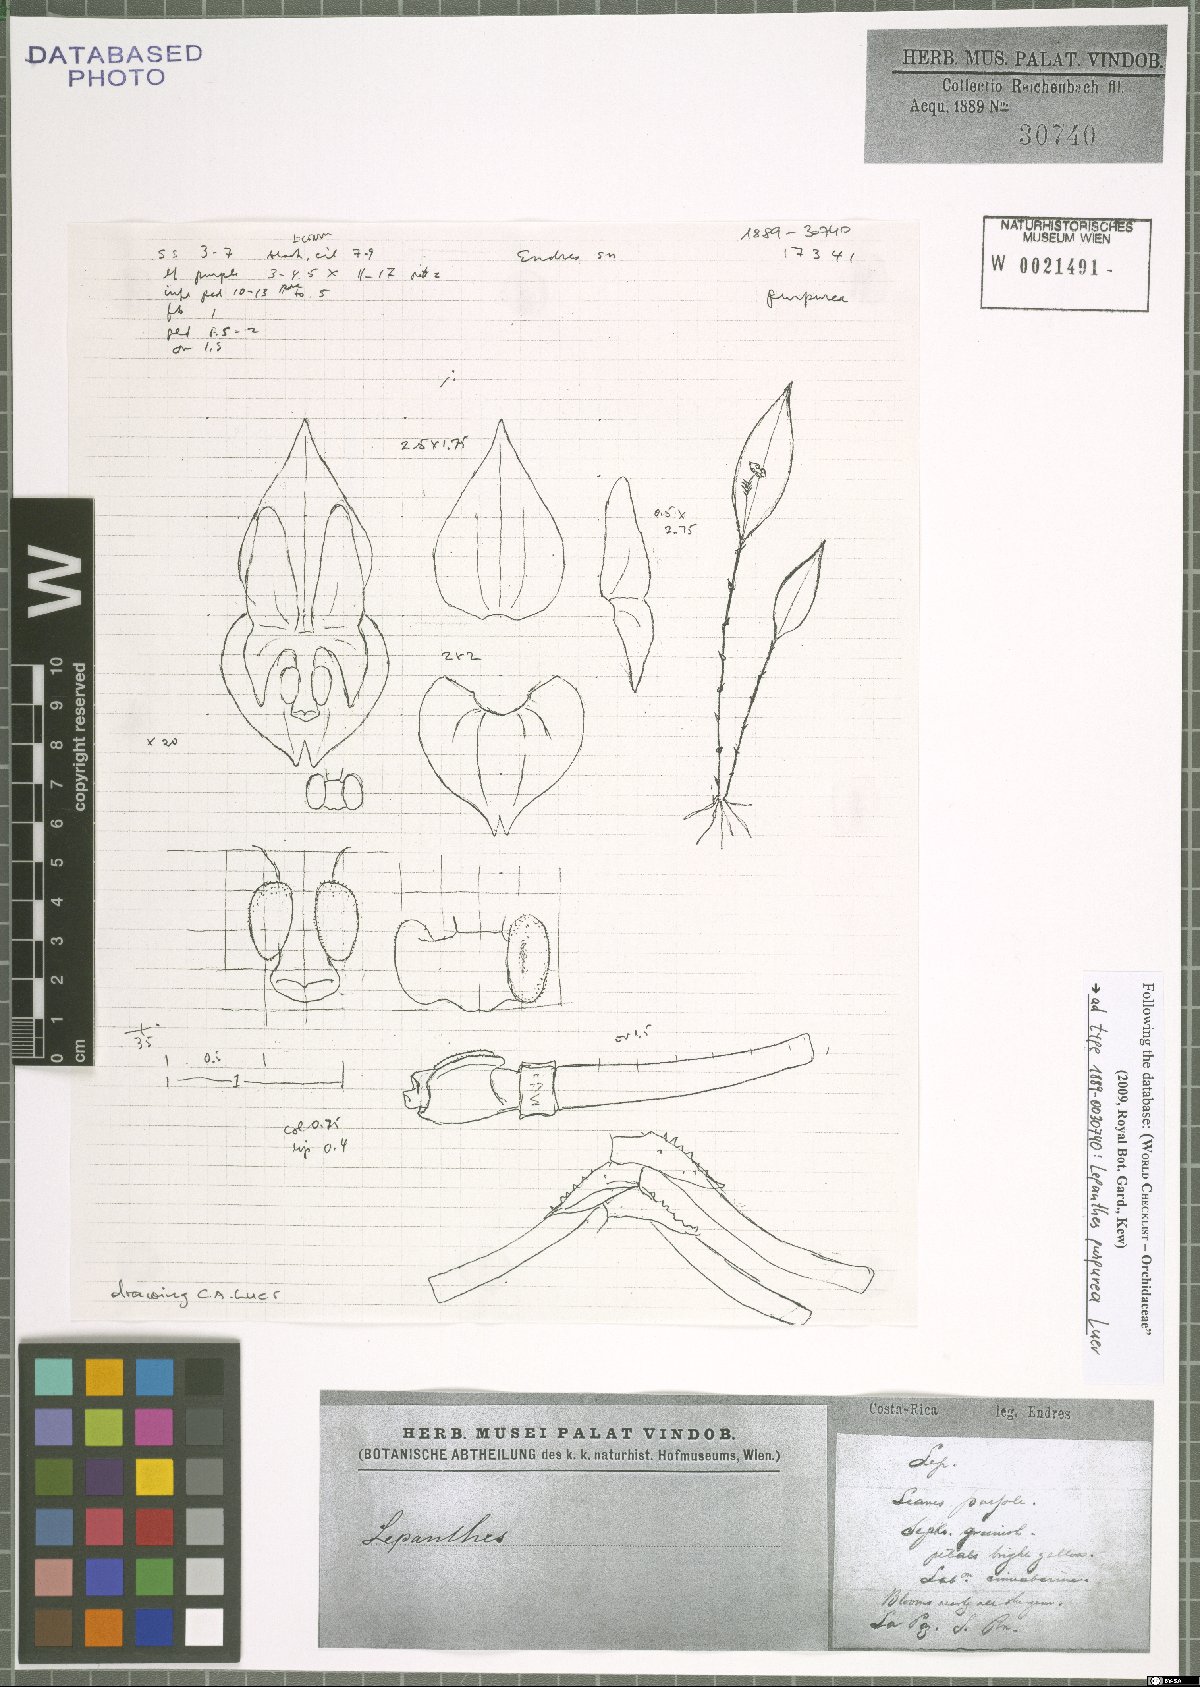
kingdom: Plantae
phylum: Tracheophyta
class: Liliopsida
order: Asparagales
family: Orchidaceae
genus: Lepanthes
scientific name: Lepanthes purpurea
